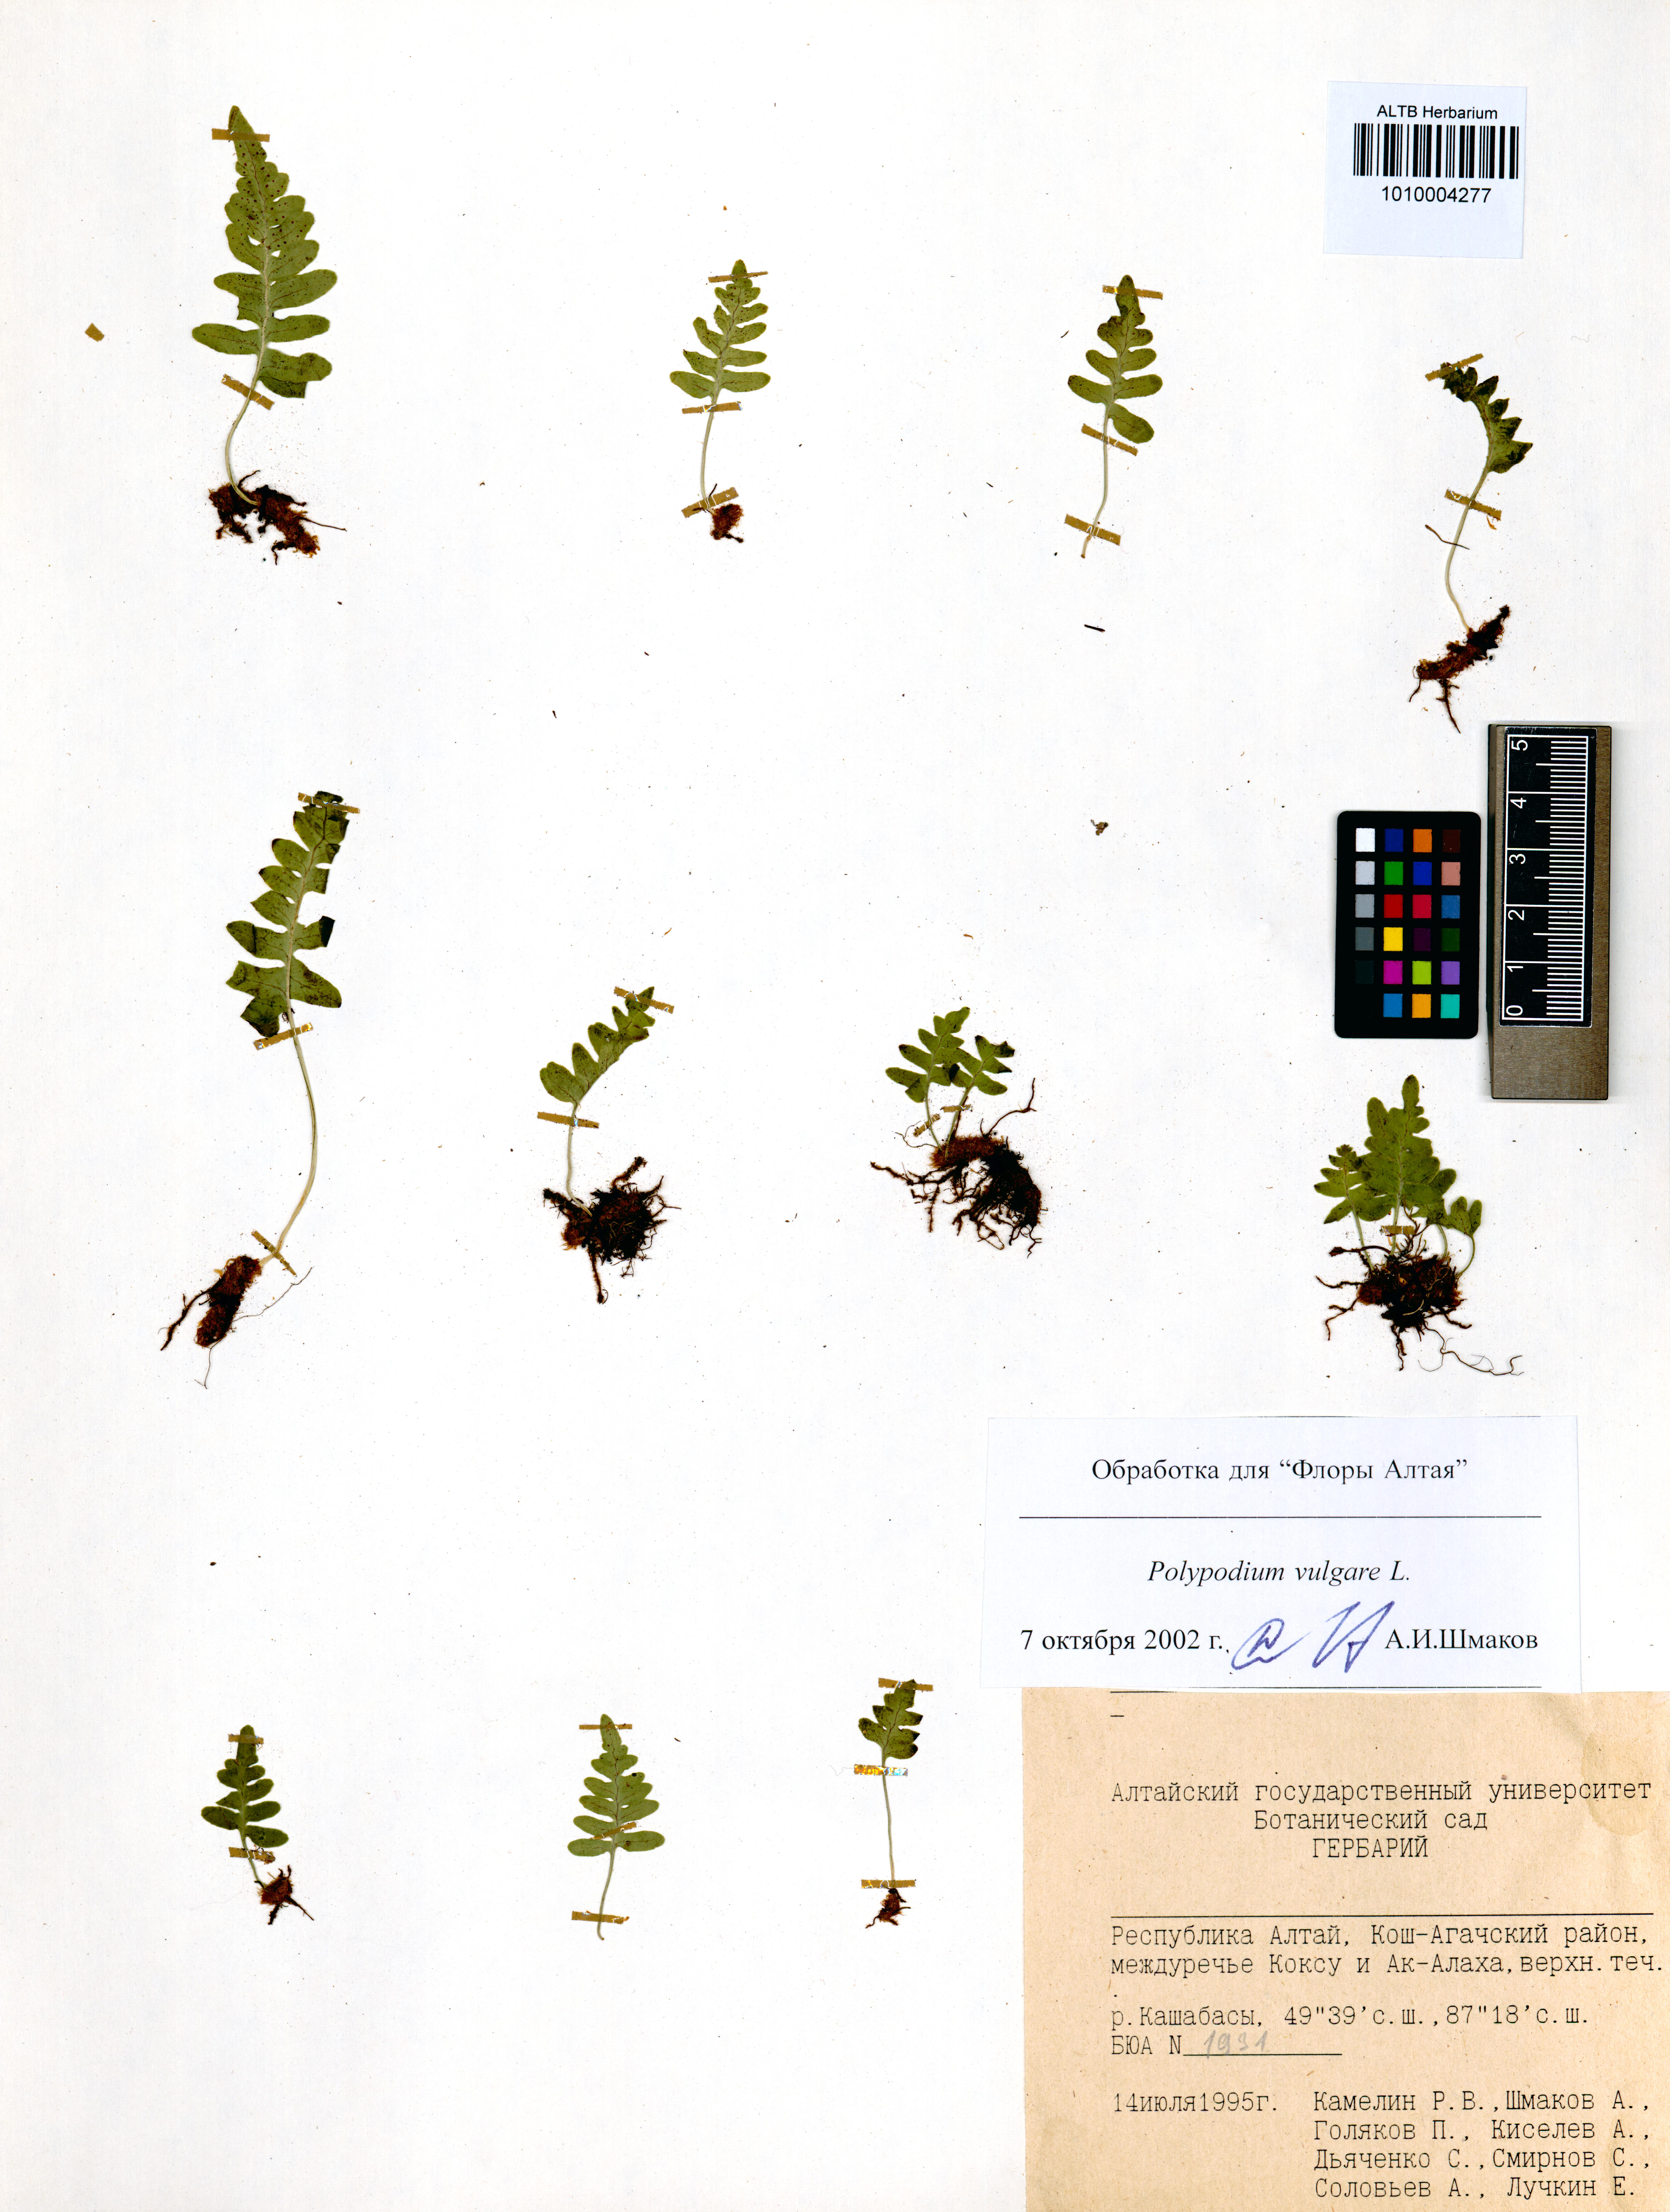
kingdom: Plantae
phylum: Tracheophyta
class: Polypodiopsida
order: Polypodiales
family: Polypodiaceae
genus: Polypodium
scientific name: Polypodium vulgare
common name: Common polypody
